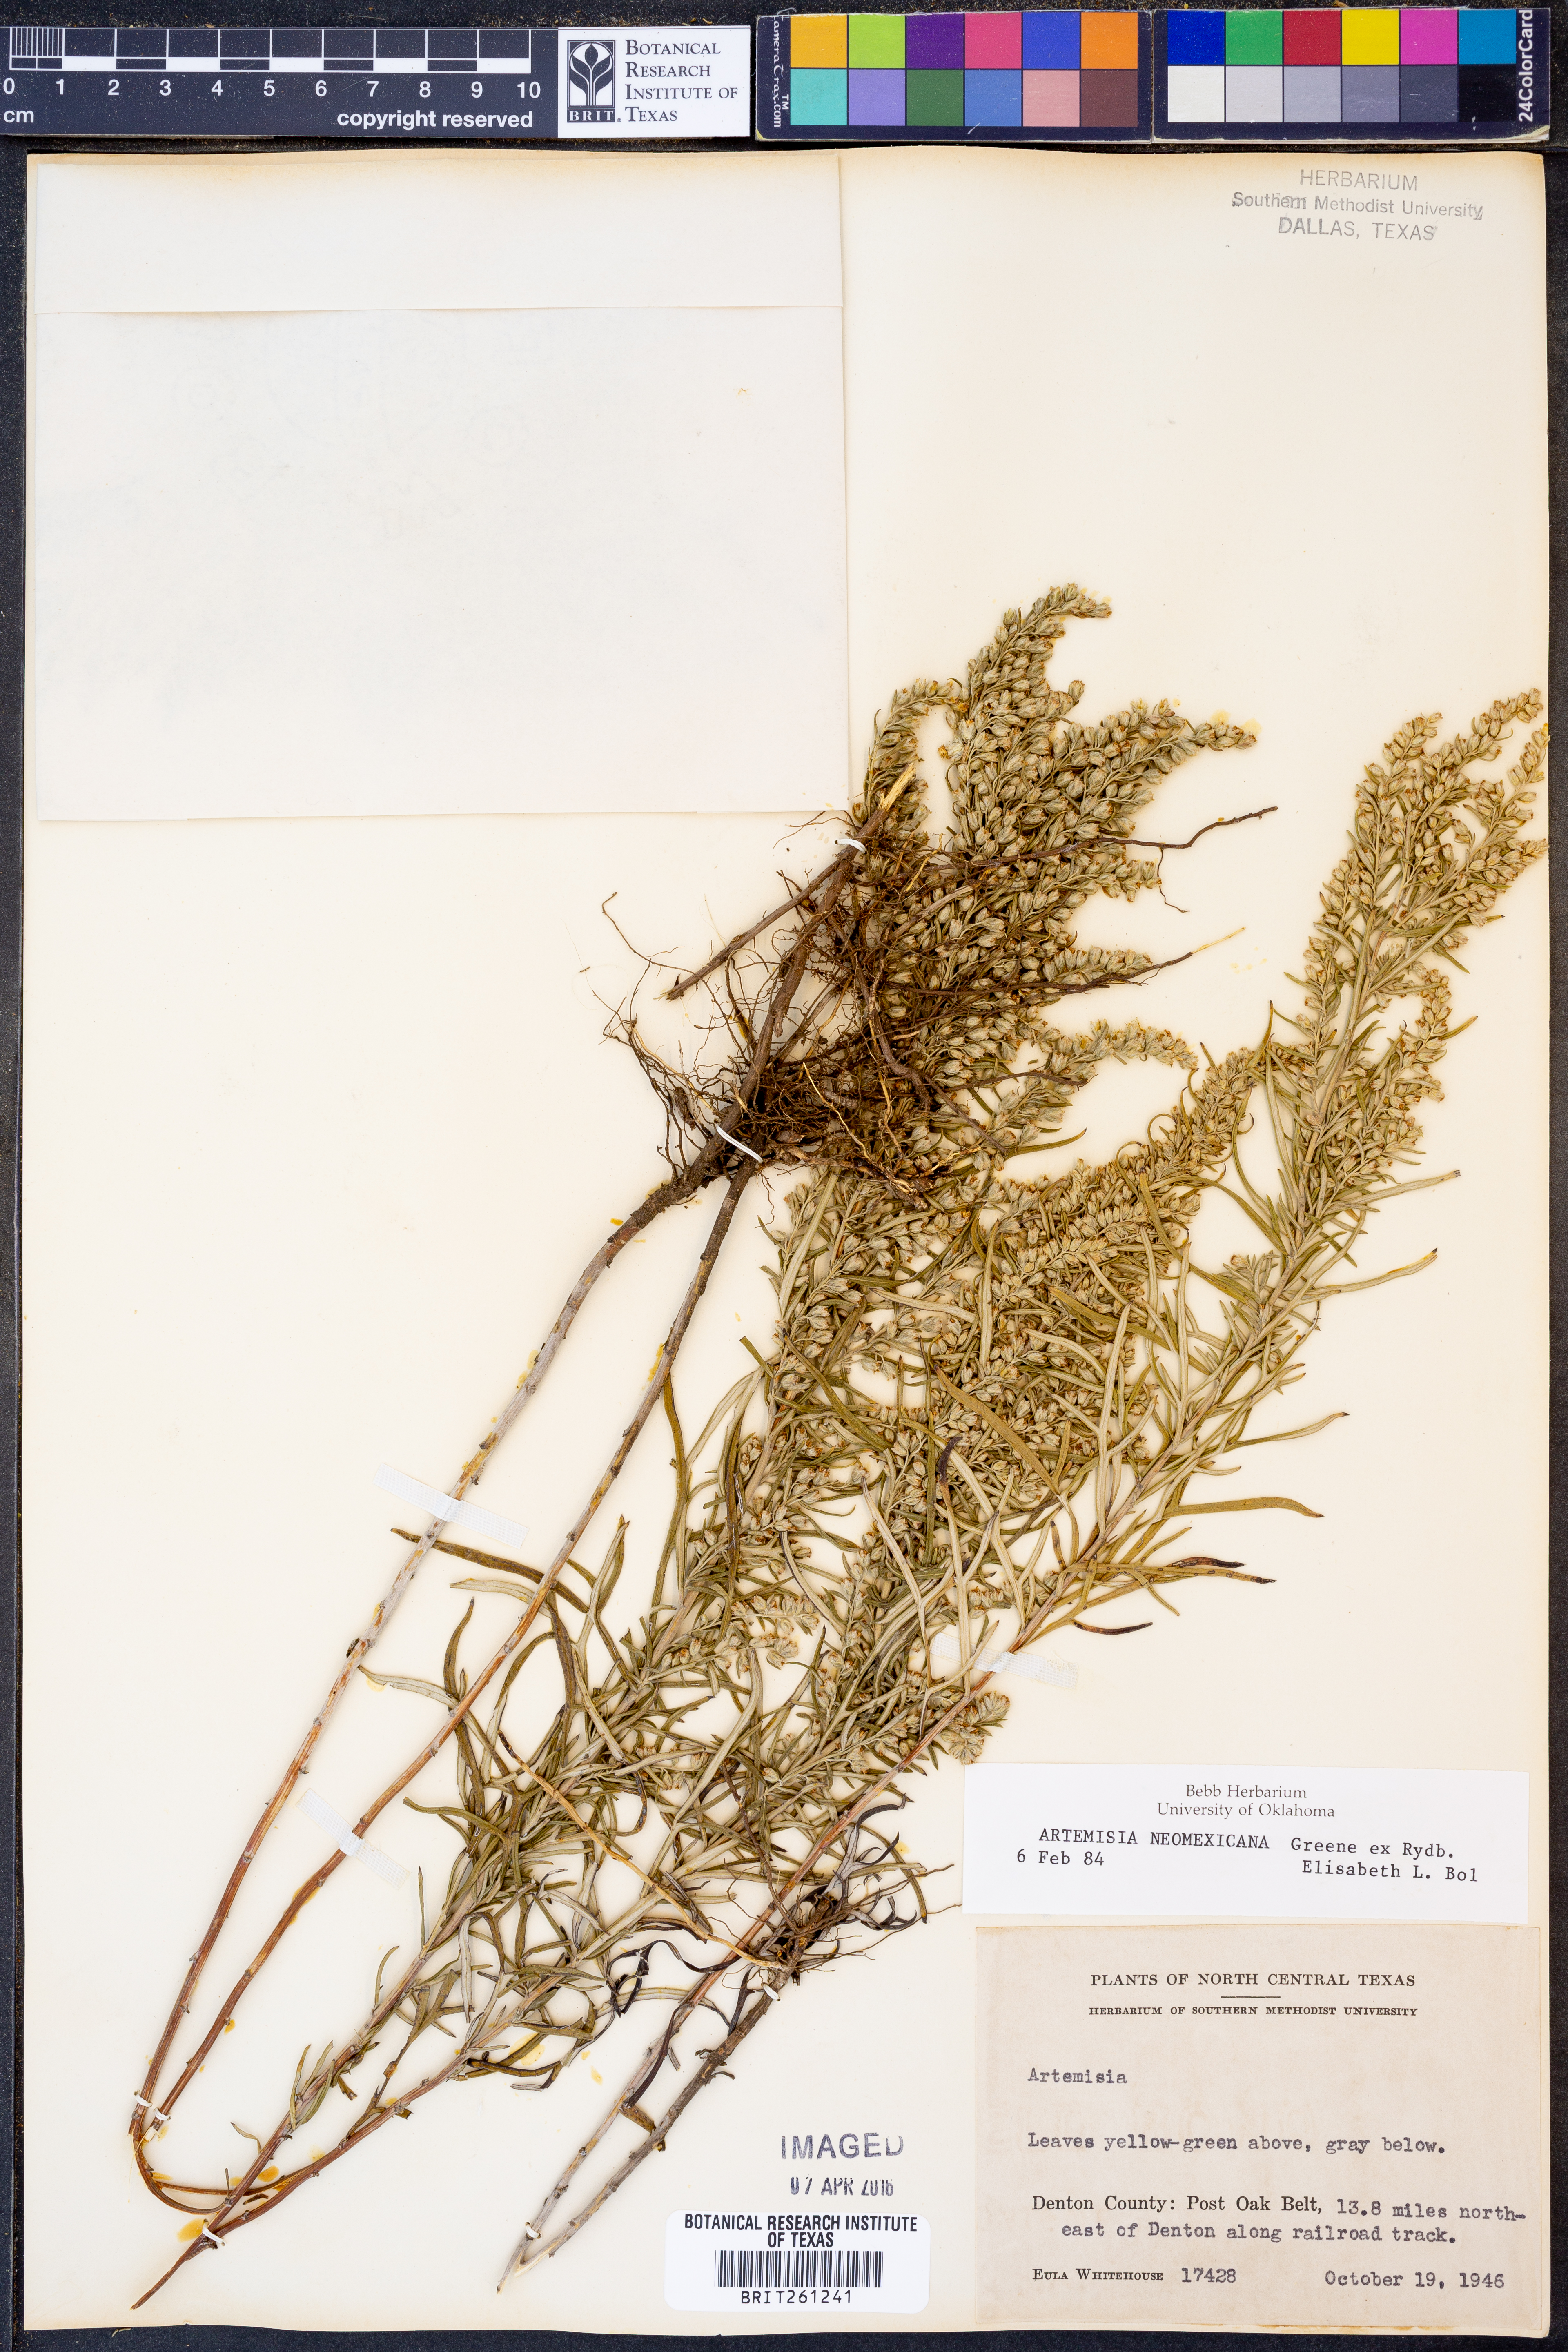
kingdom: Plantae
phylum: Tracheophyta
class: Magnoliopsida
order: Asterales
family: Asteraceae
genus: Artemisia
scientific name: Artemisia ludoviciana
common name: Western mugwort
